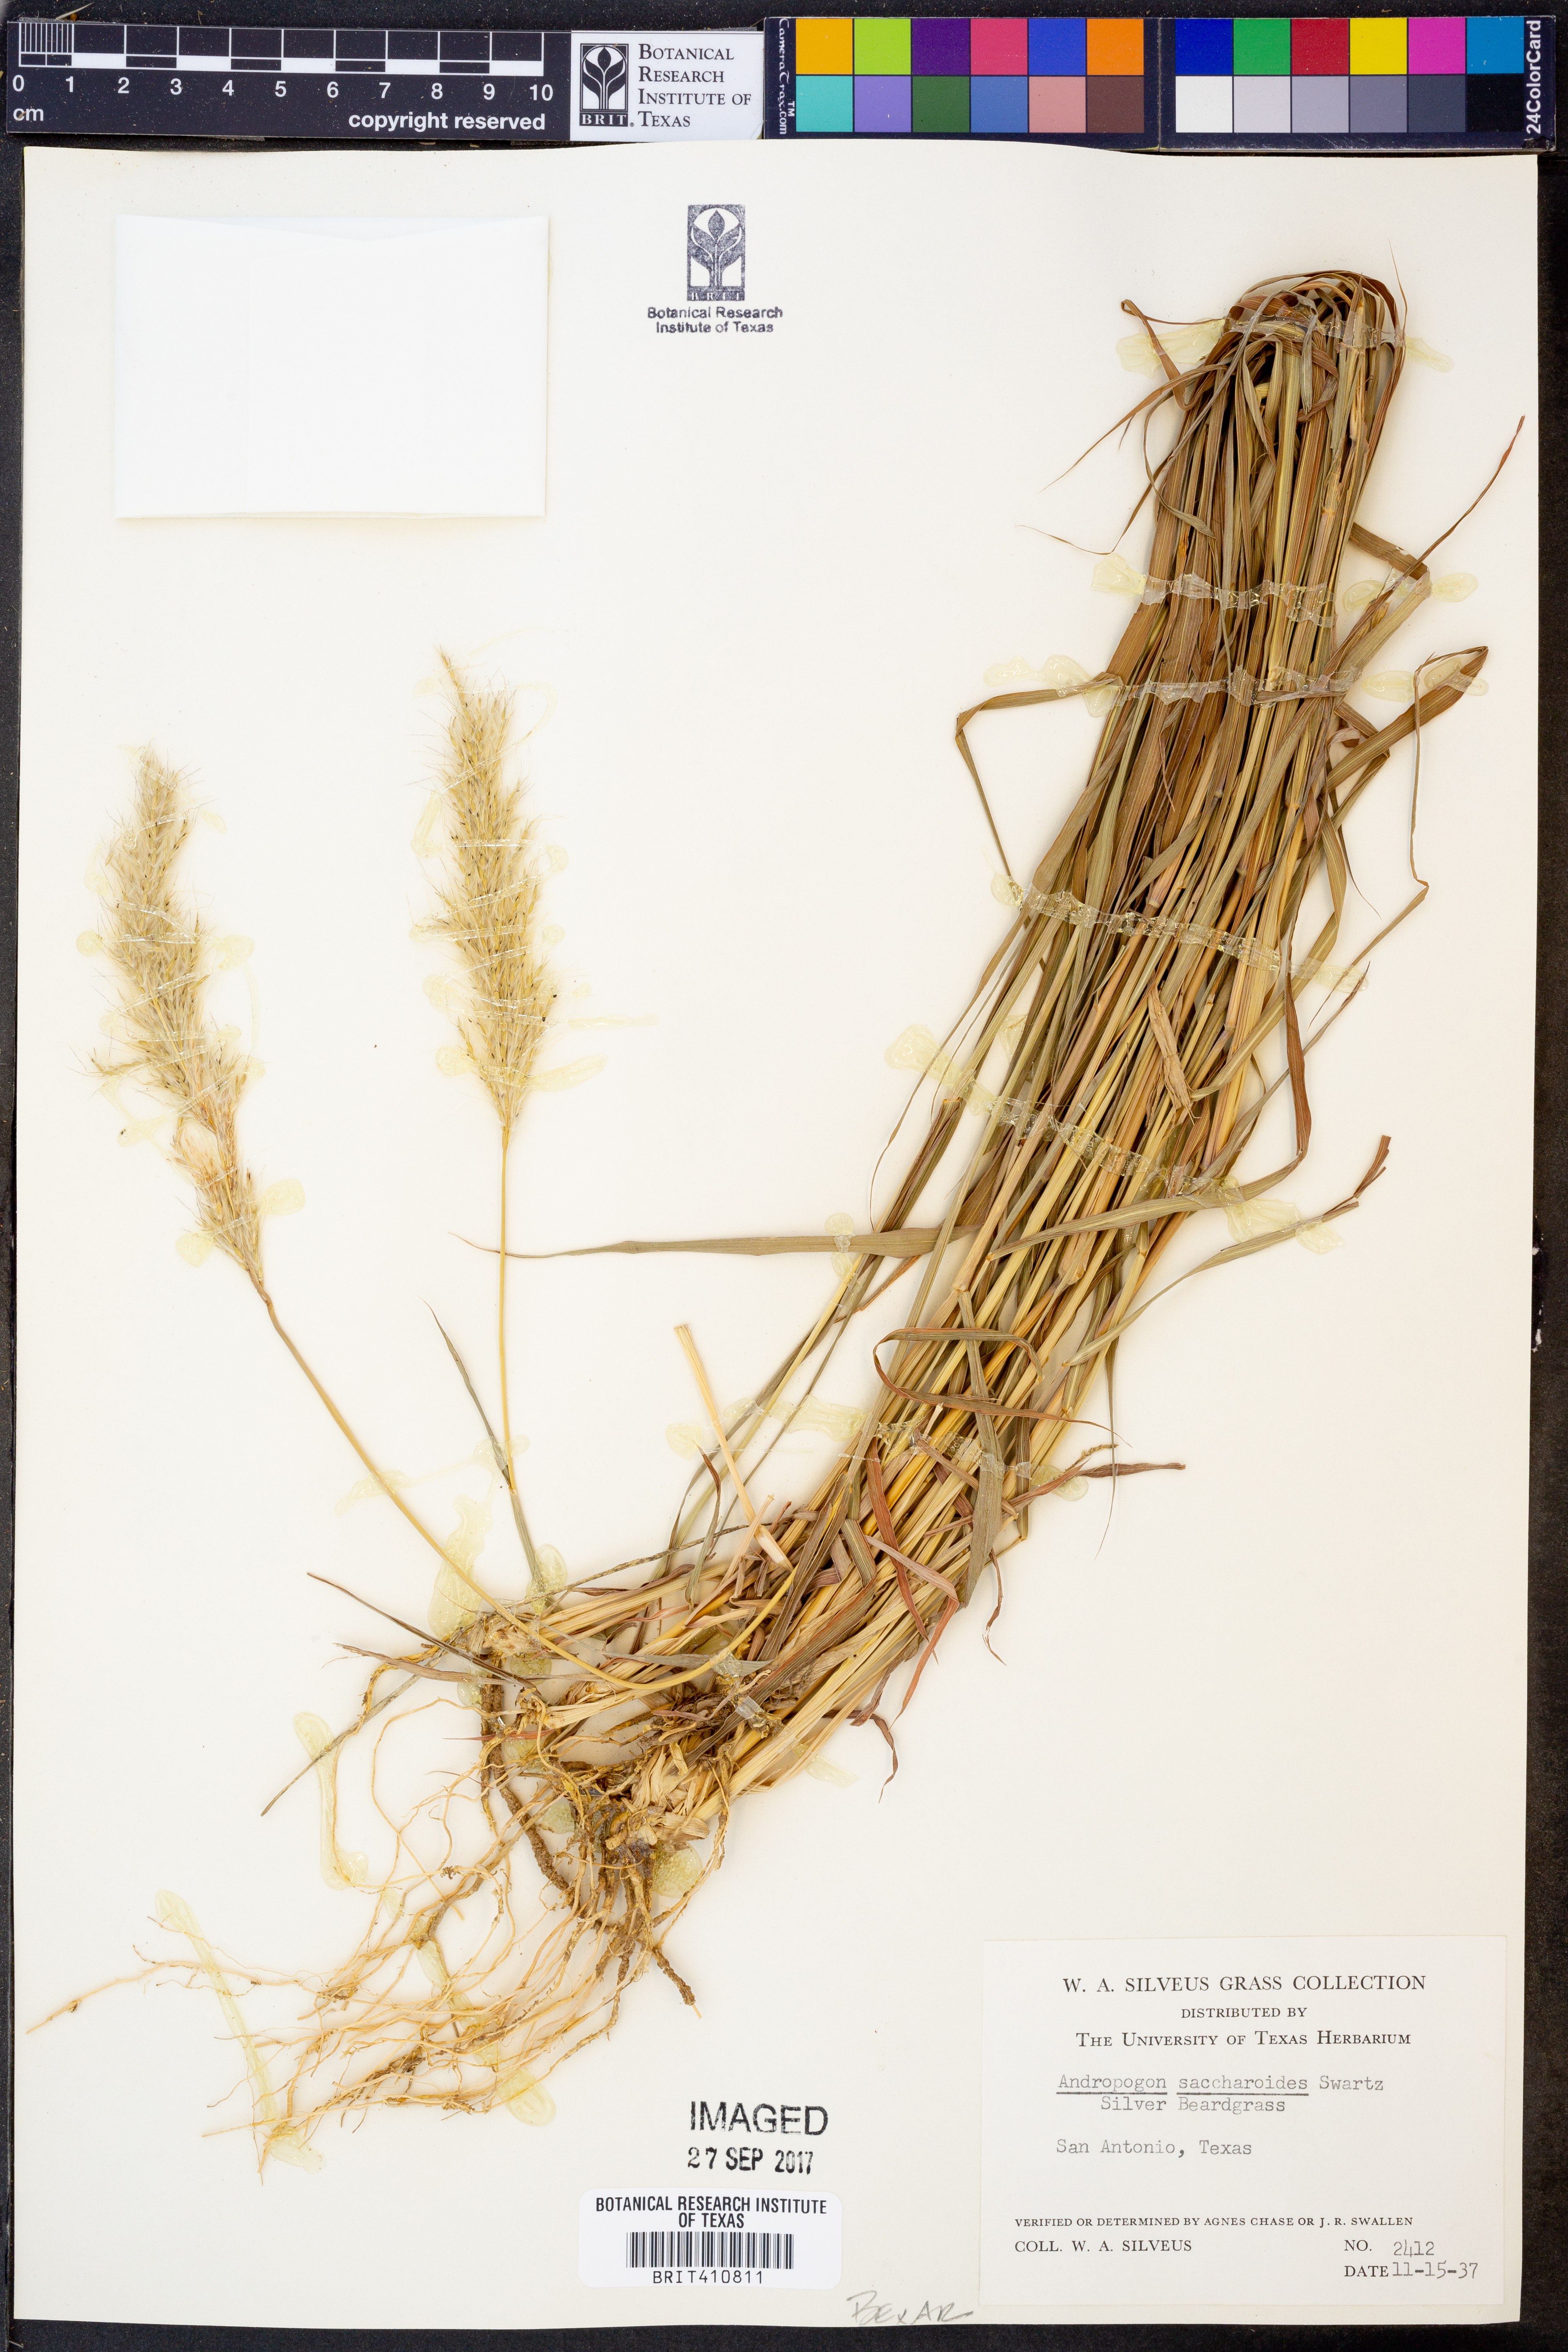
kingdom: Plantae
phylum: Tracheophyta
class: Liliopsida
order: Poales
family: Poaceae
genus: Bothriochloa
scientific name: Bothriochloa saccharoides
